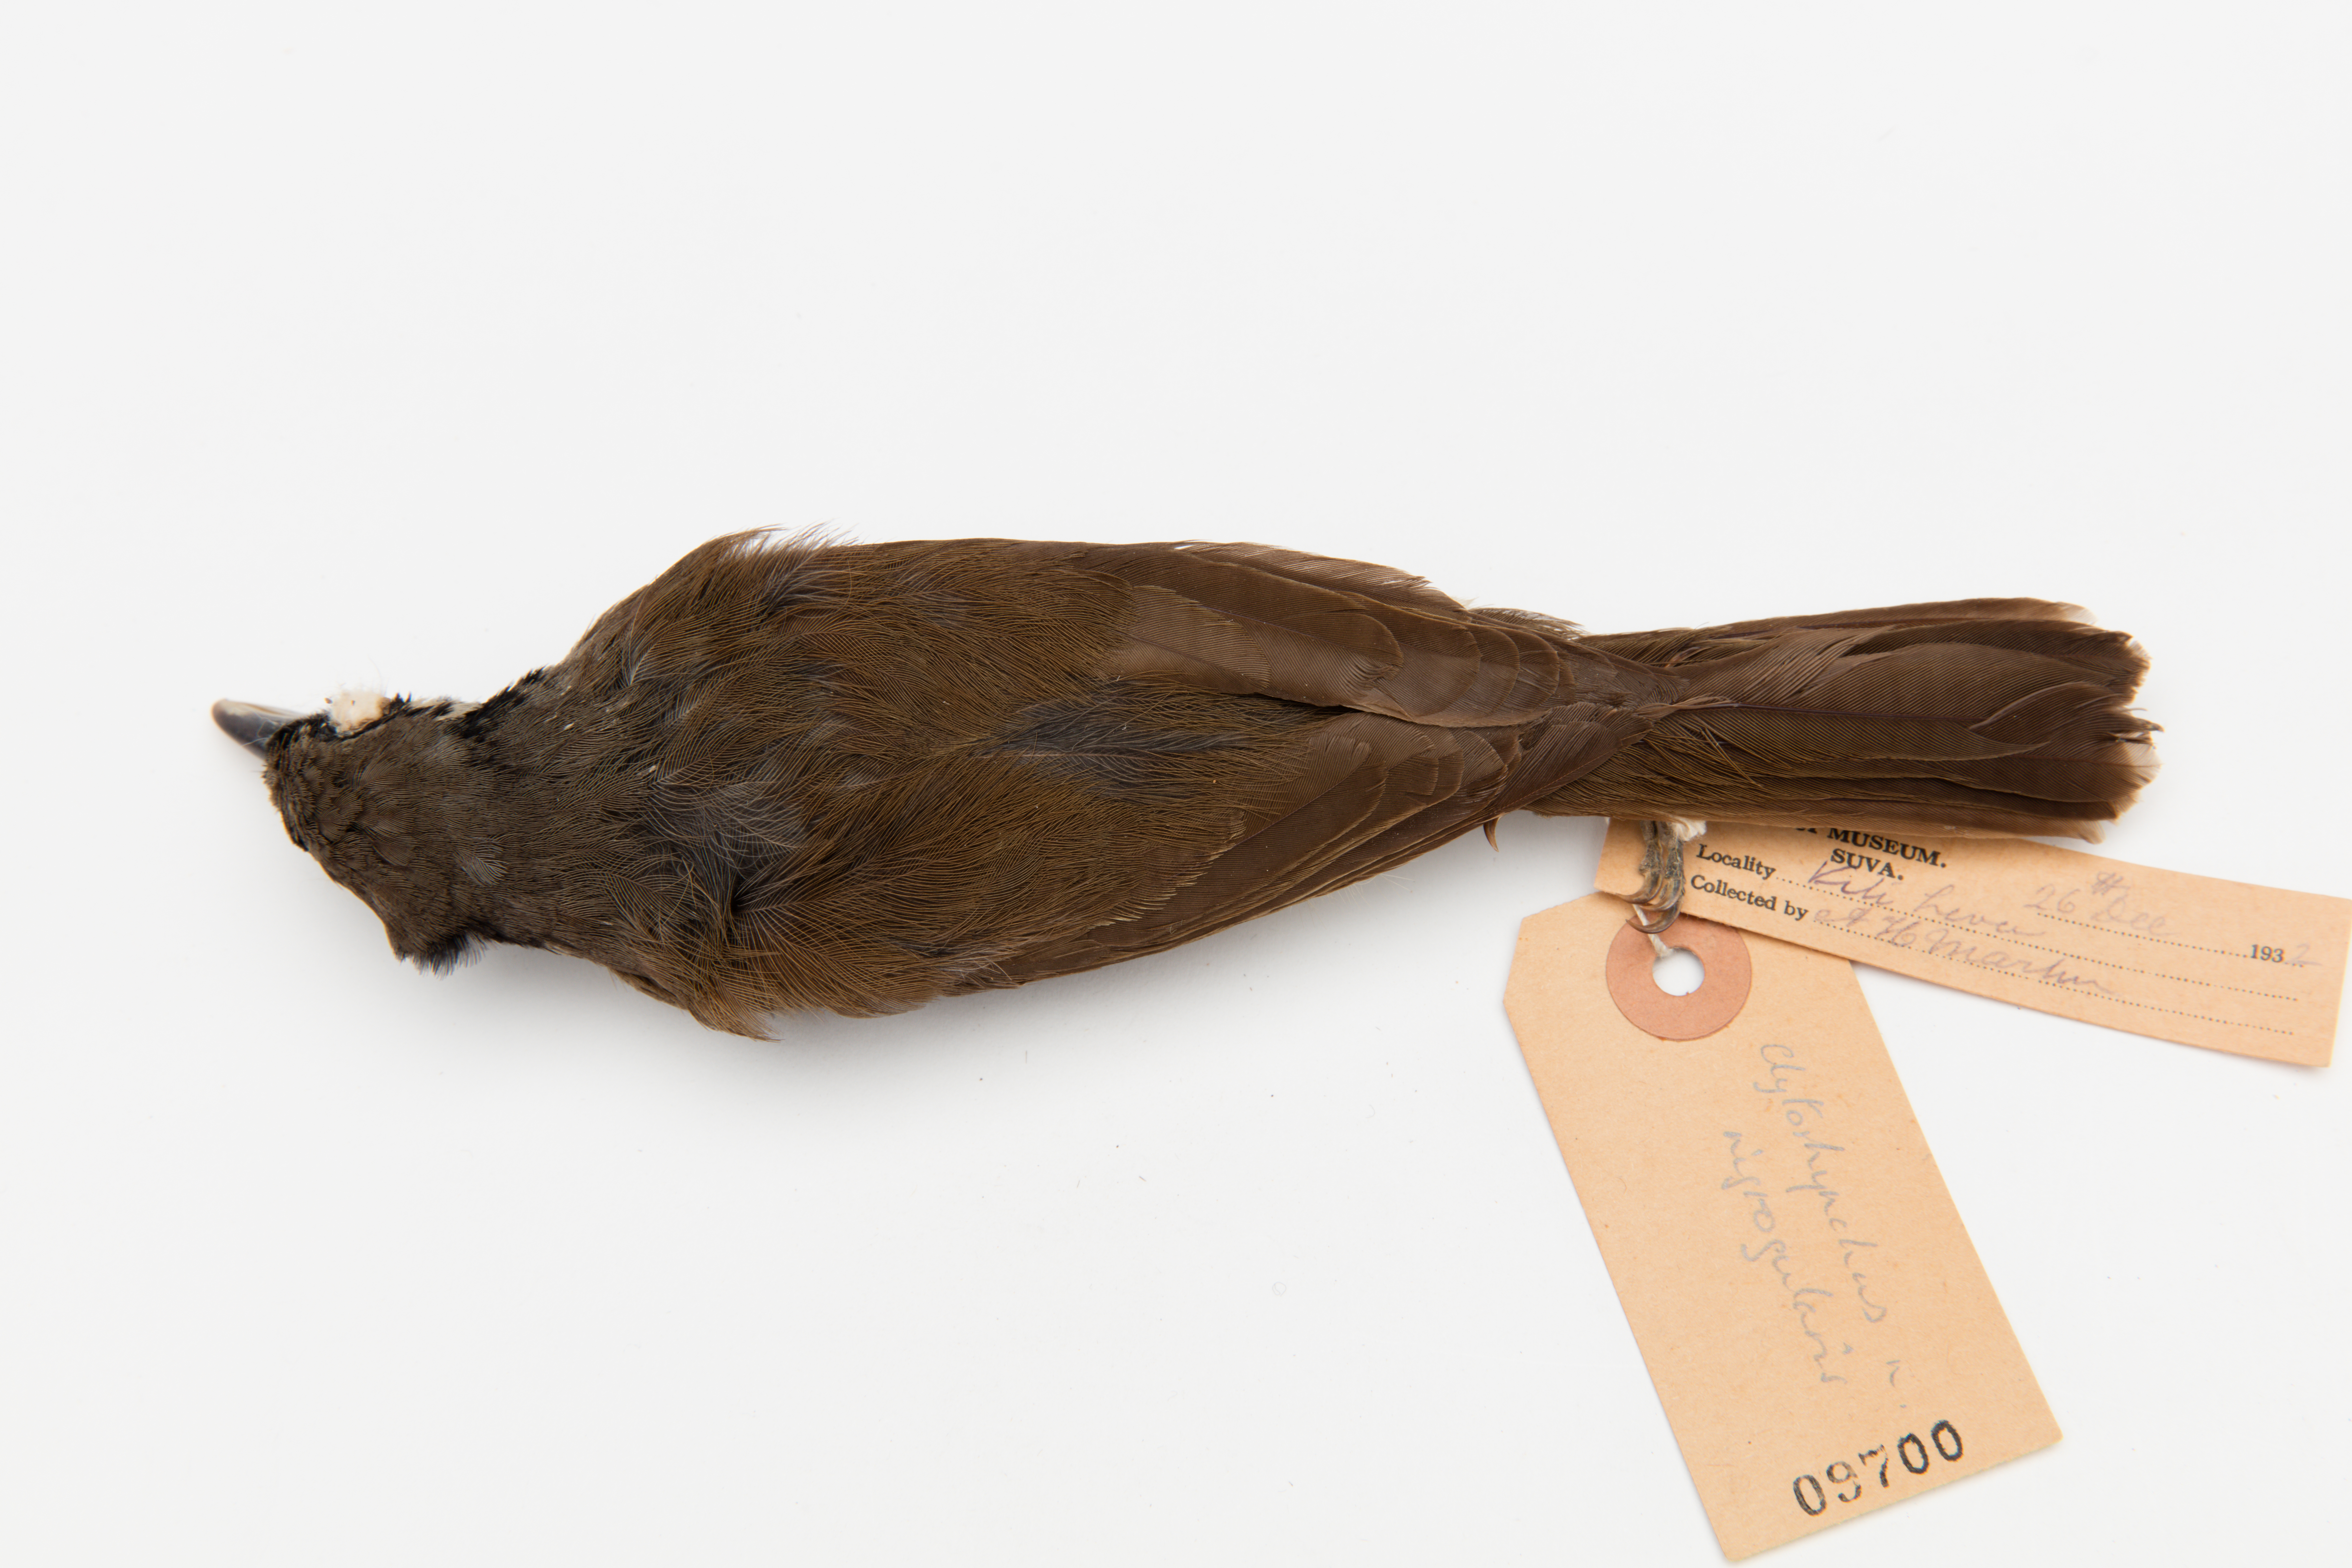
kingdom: Animalia
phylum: Chordata
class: Aves
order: Passeriformes
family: Monarchidae
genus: Clytorhynchus
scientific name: Clytorhynchus nigrogularis
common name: Black-throated shrikebill
